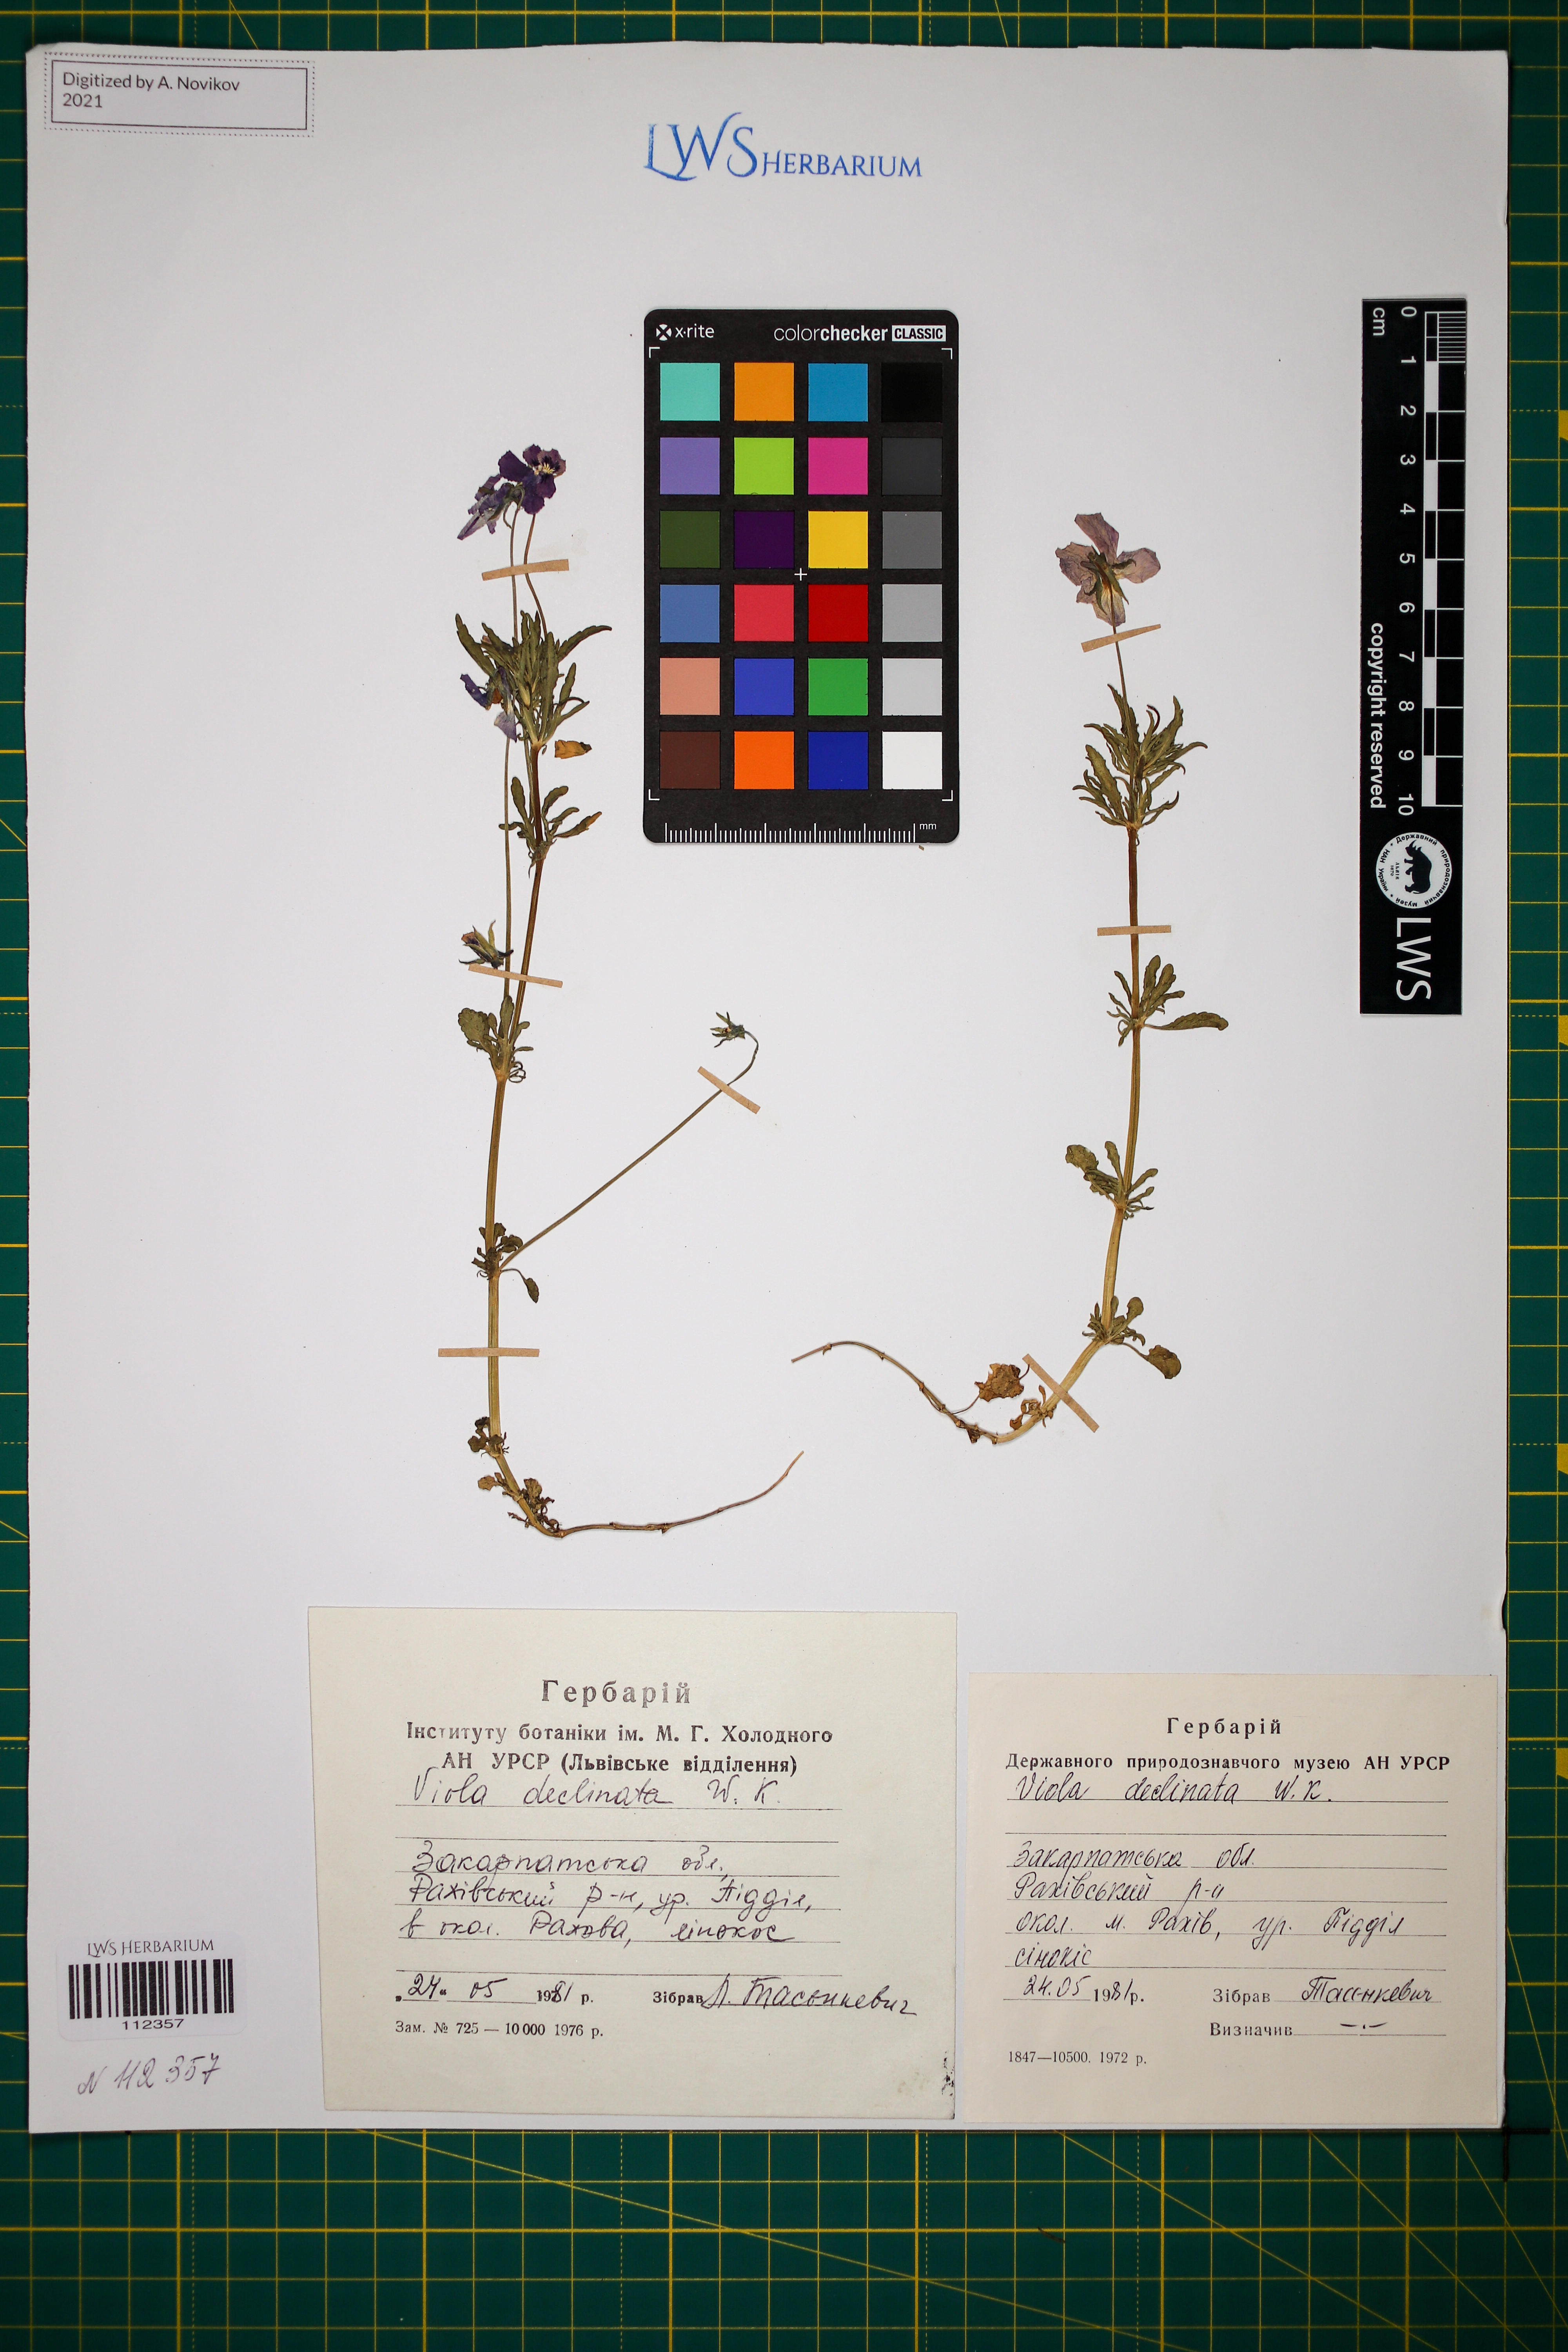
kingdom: Plantae
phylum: Tracheophyta
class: Magnoliopsida
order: Malpighiales
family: Violaceae
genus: Viola
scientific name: Viola declinata
